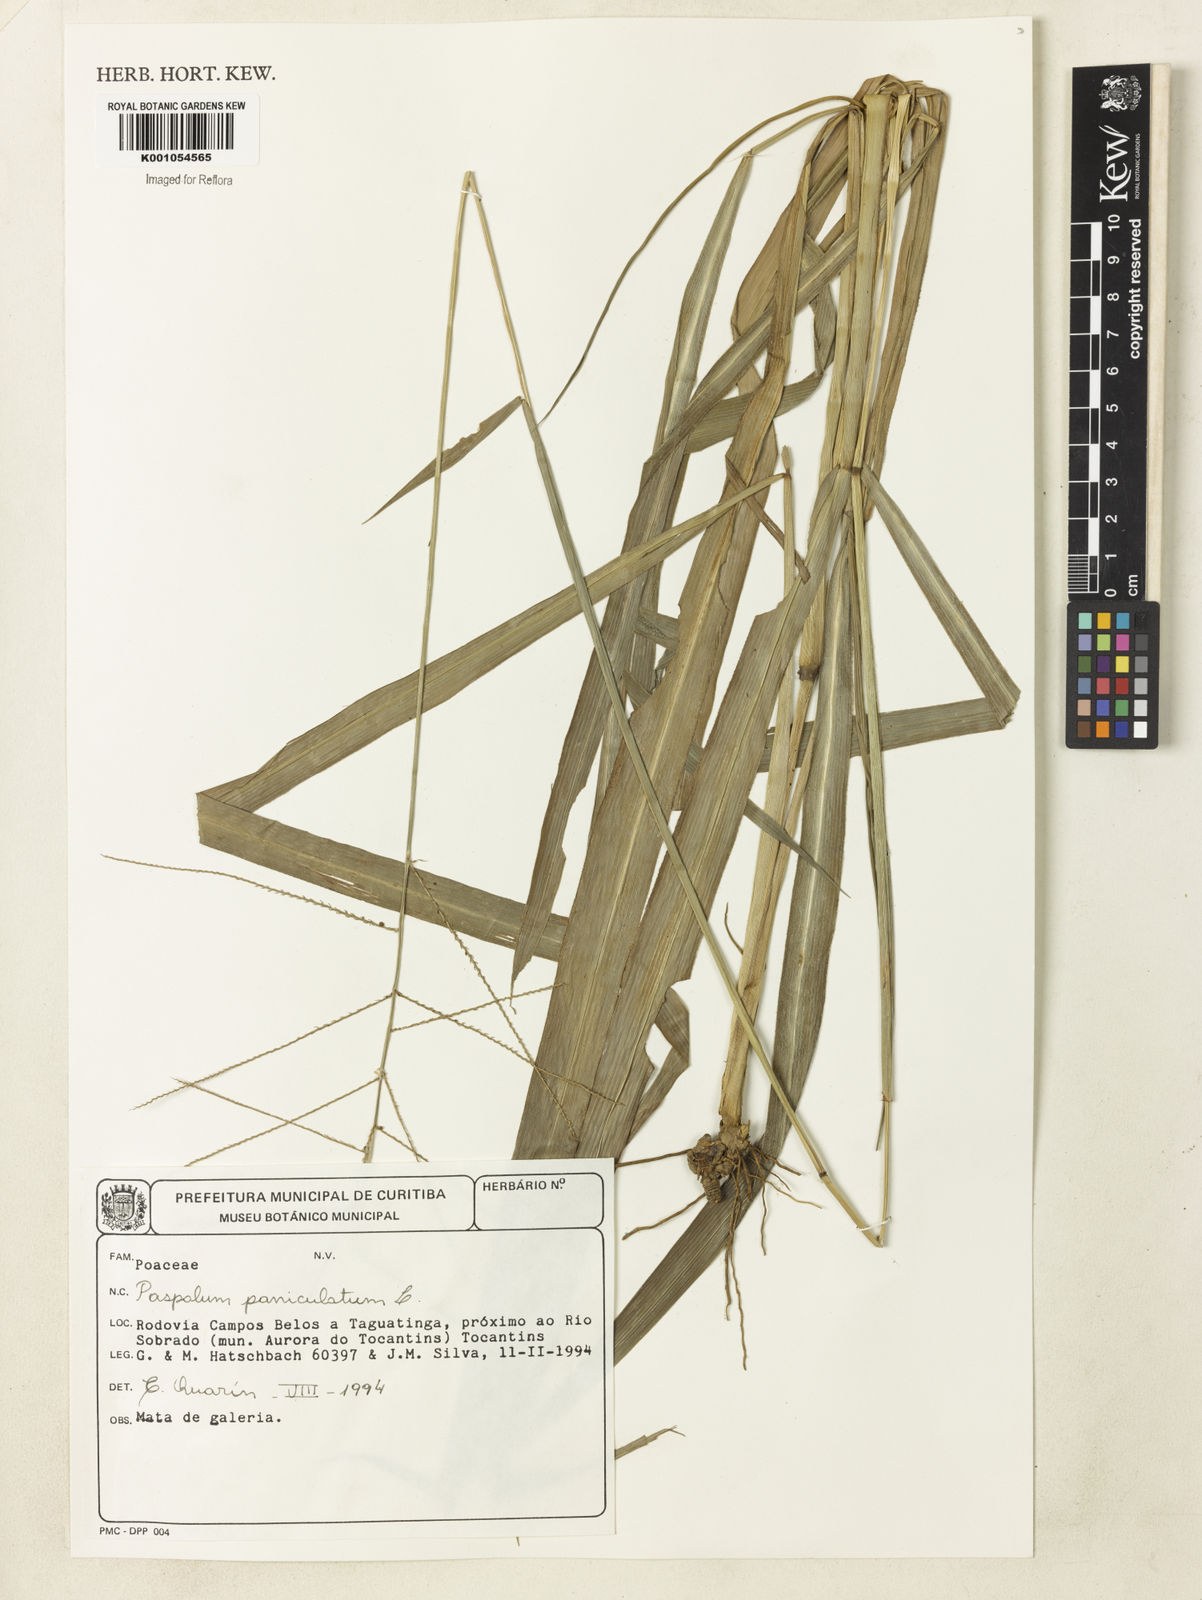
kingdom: Plantae
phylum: Tracheophyta
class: Liliopsida
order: Poales
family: Poaceae
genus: Paspalum
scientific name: Paspalum paniculatum
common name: Arrocillo
